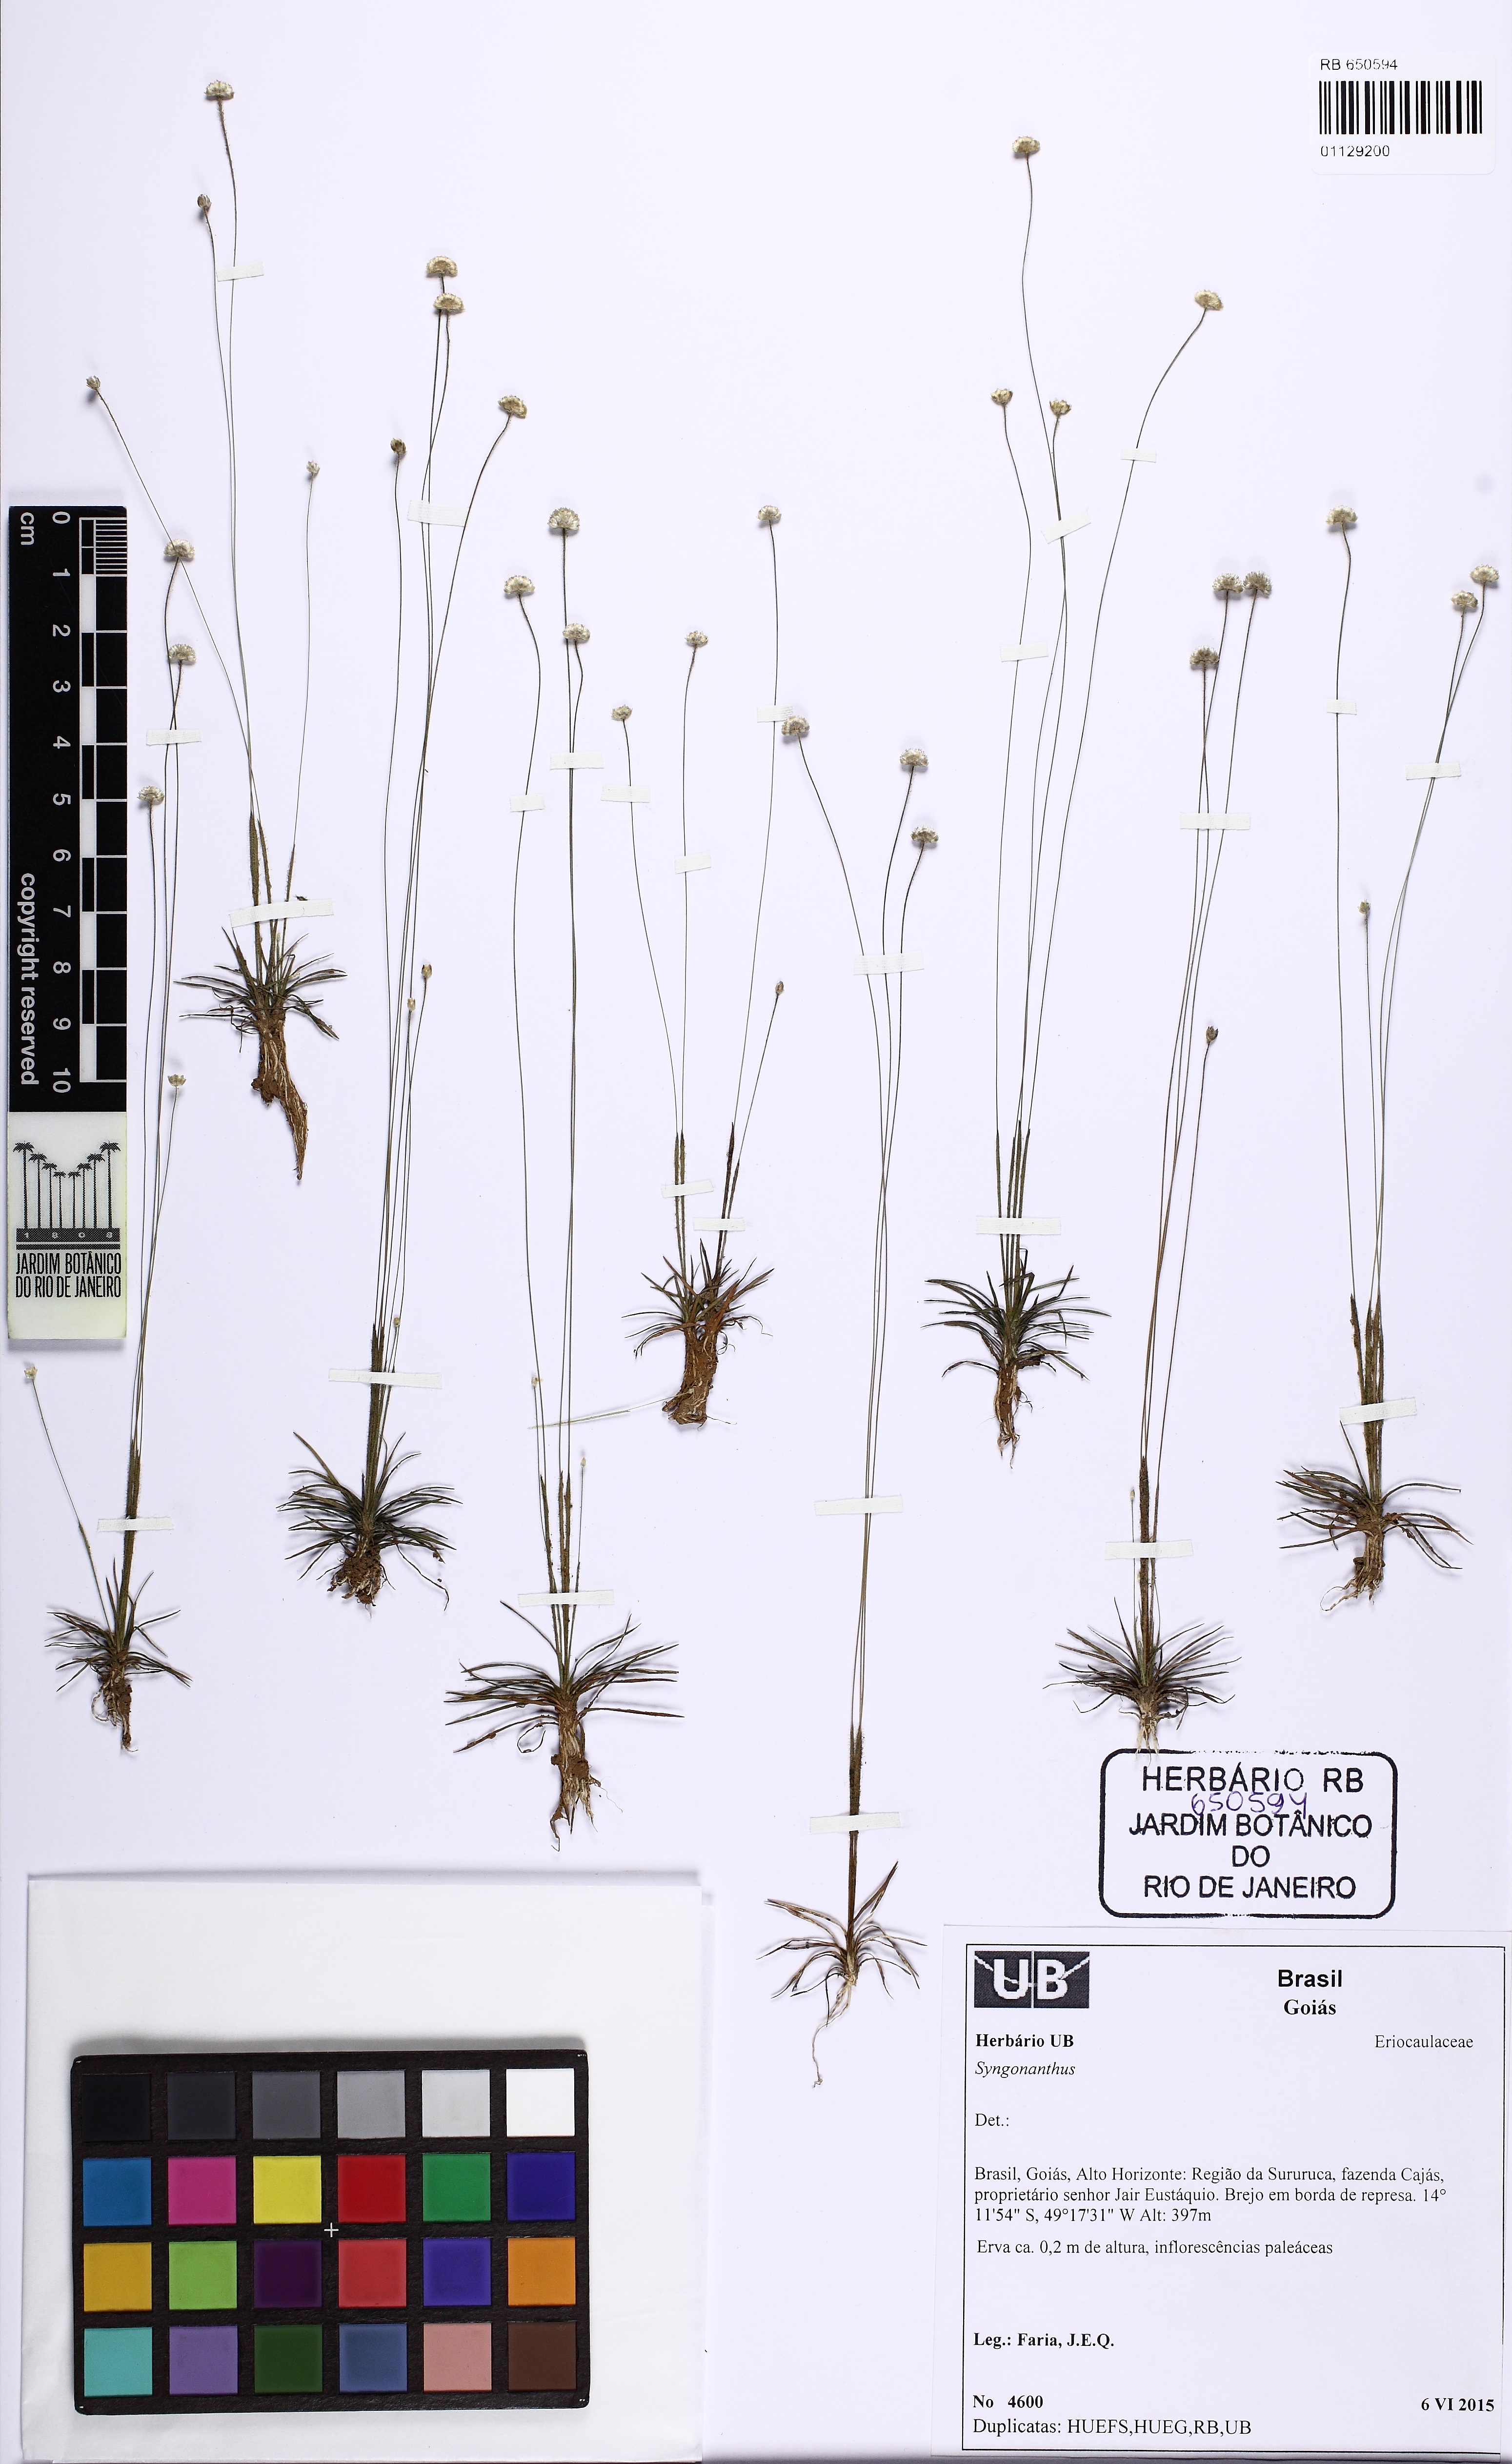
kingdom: Plantae
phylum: Tracheophyta
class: Liliopsida
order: Poales
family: Eriocaulaceae
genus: Syngonanthus
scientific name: Syngonanthus davidsei
